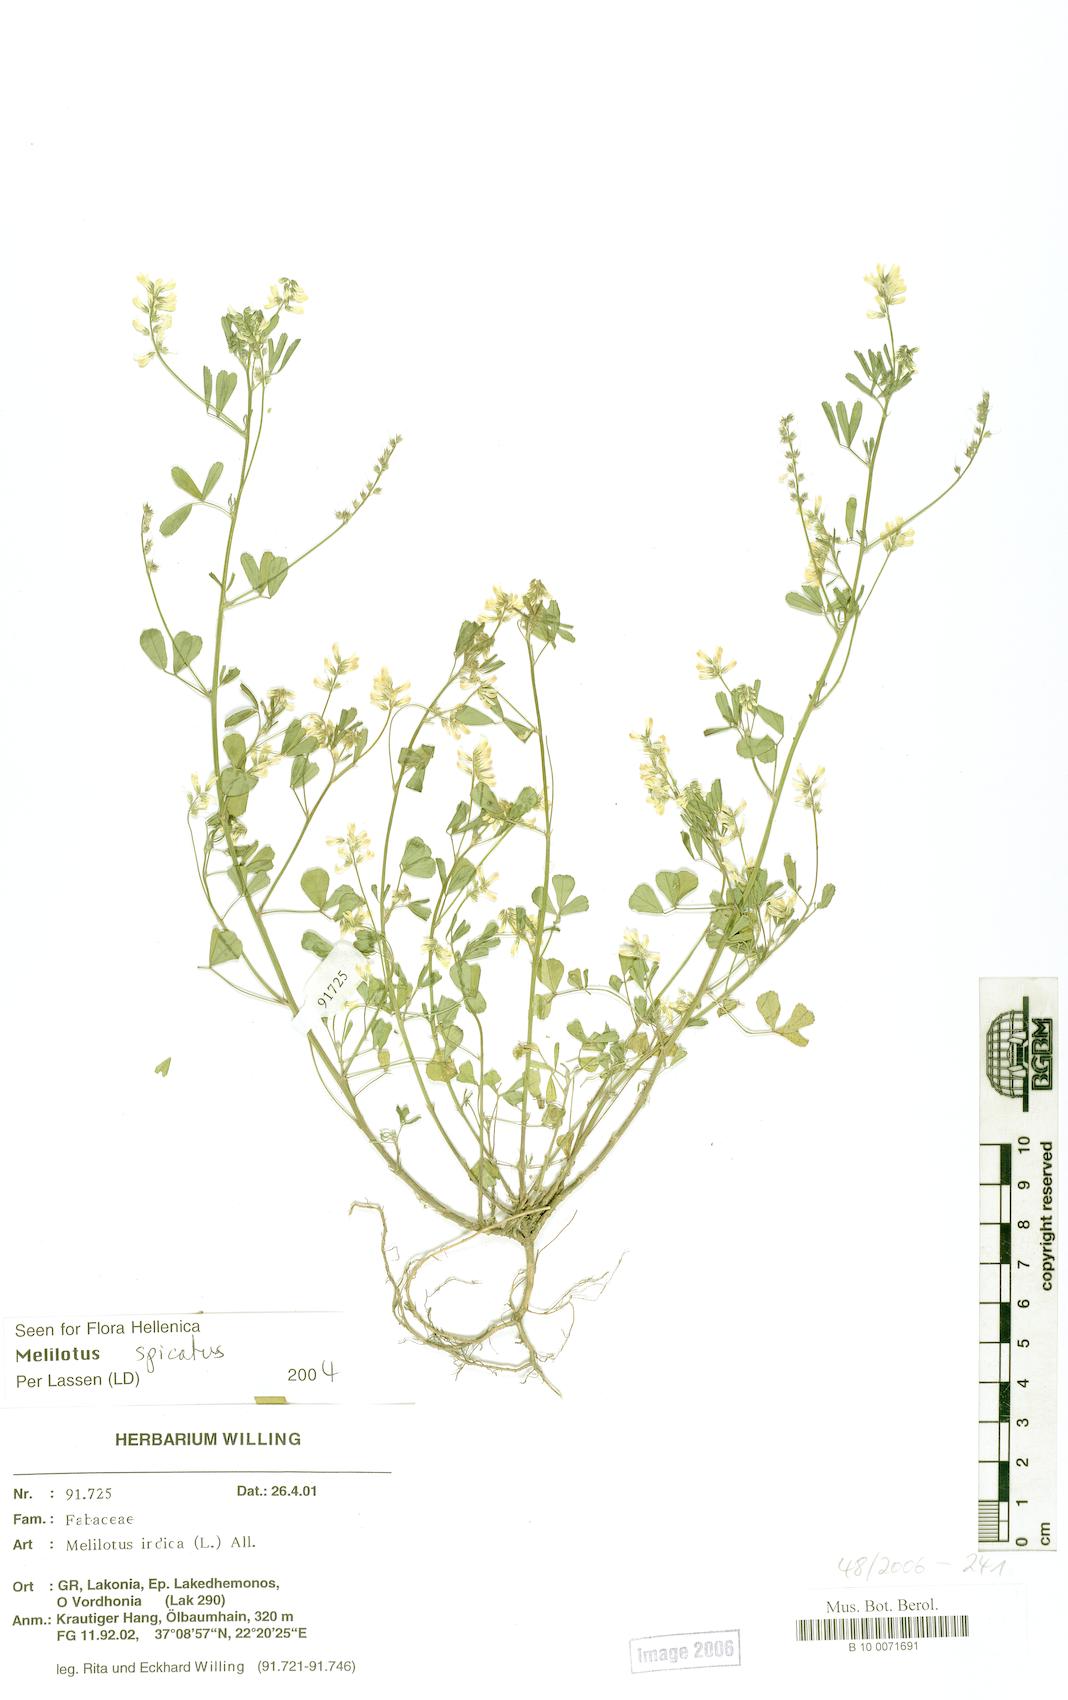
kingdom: Plantae
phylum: Tracheophyta
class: Magnoliopsida
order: Fabales
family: Fabaceae
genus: Melilotus
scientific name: Melilotus indicus
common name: Small melilot
